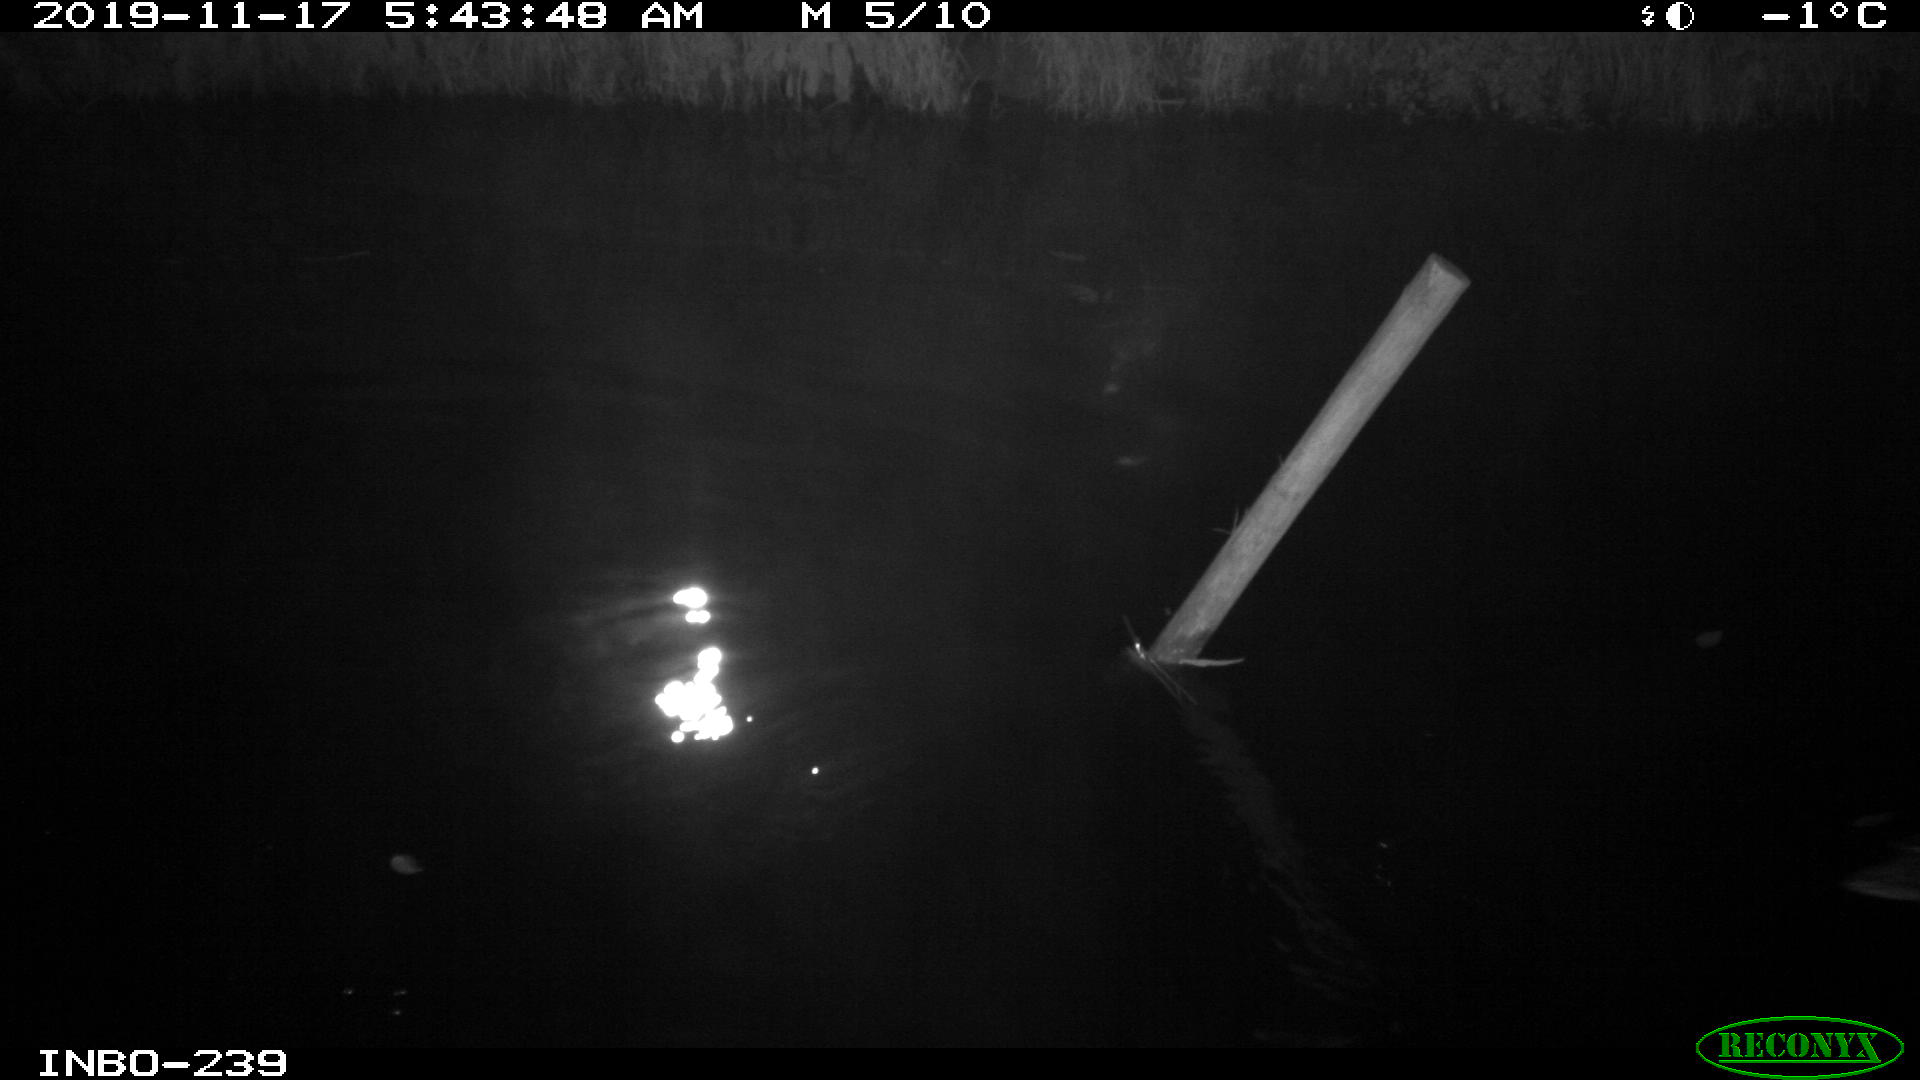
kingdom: Animalia
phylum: Chordata
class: Aves
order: Anseriformes
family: Anatidae
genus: Anas
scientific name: Anas platyrhynchos
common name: Mallard
